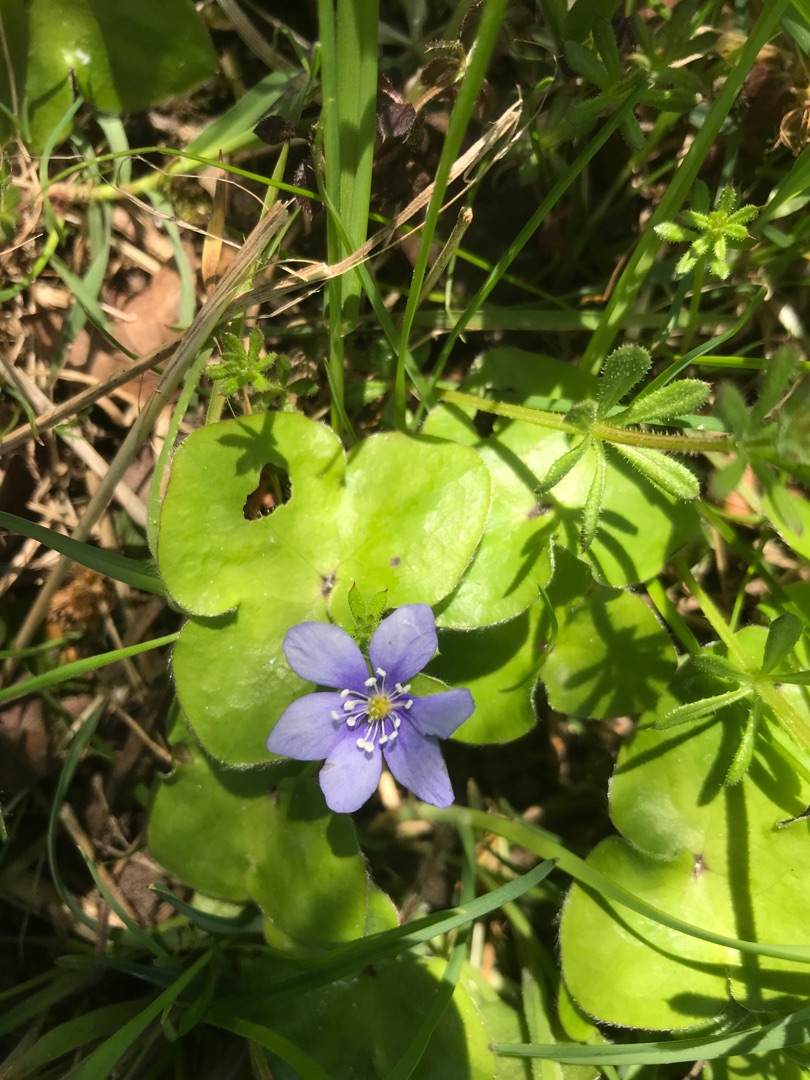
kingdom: Plantae
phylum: Tracheophyta
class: Magnoliopsida
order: Ranunculales
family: Ranunculaceae
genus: Hepatica
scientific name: Hepatica nobilis
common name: Blå anemone
